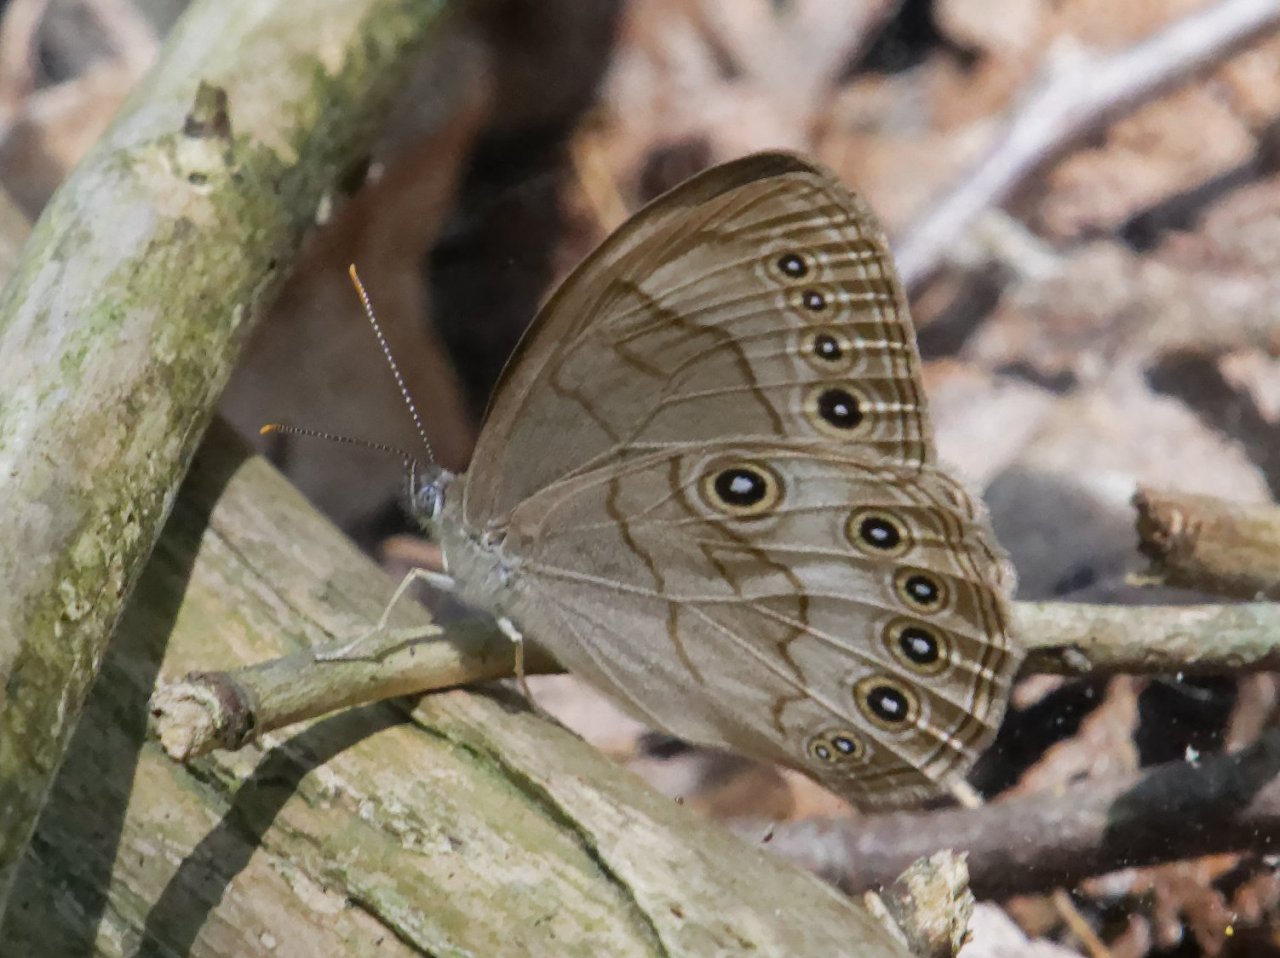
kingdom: Animalia
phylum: Arthropoda
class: Insecta
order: Lepidoptera
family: Nymphalidae
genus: Lethe
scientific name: Lethe eurydice
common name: Appalachian Eyed Brown
